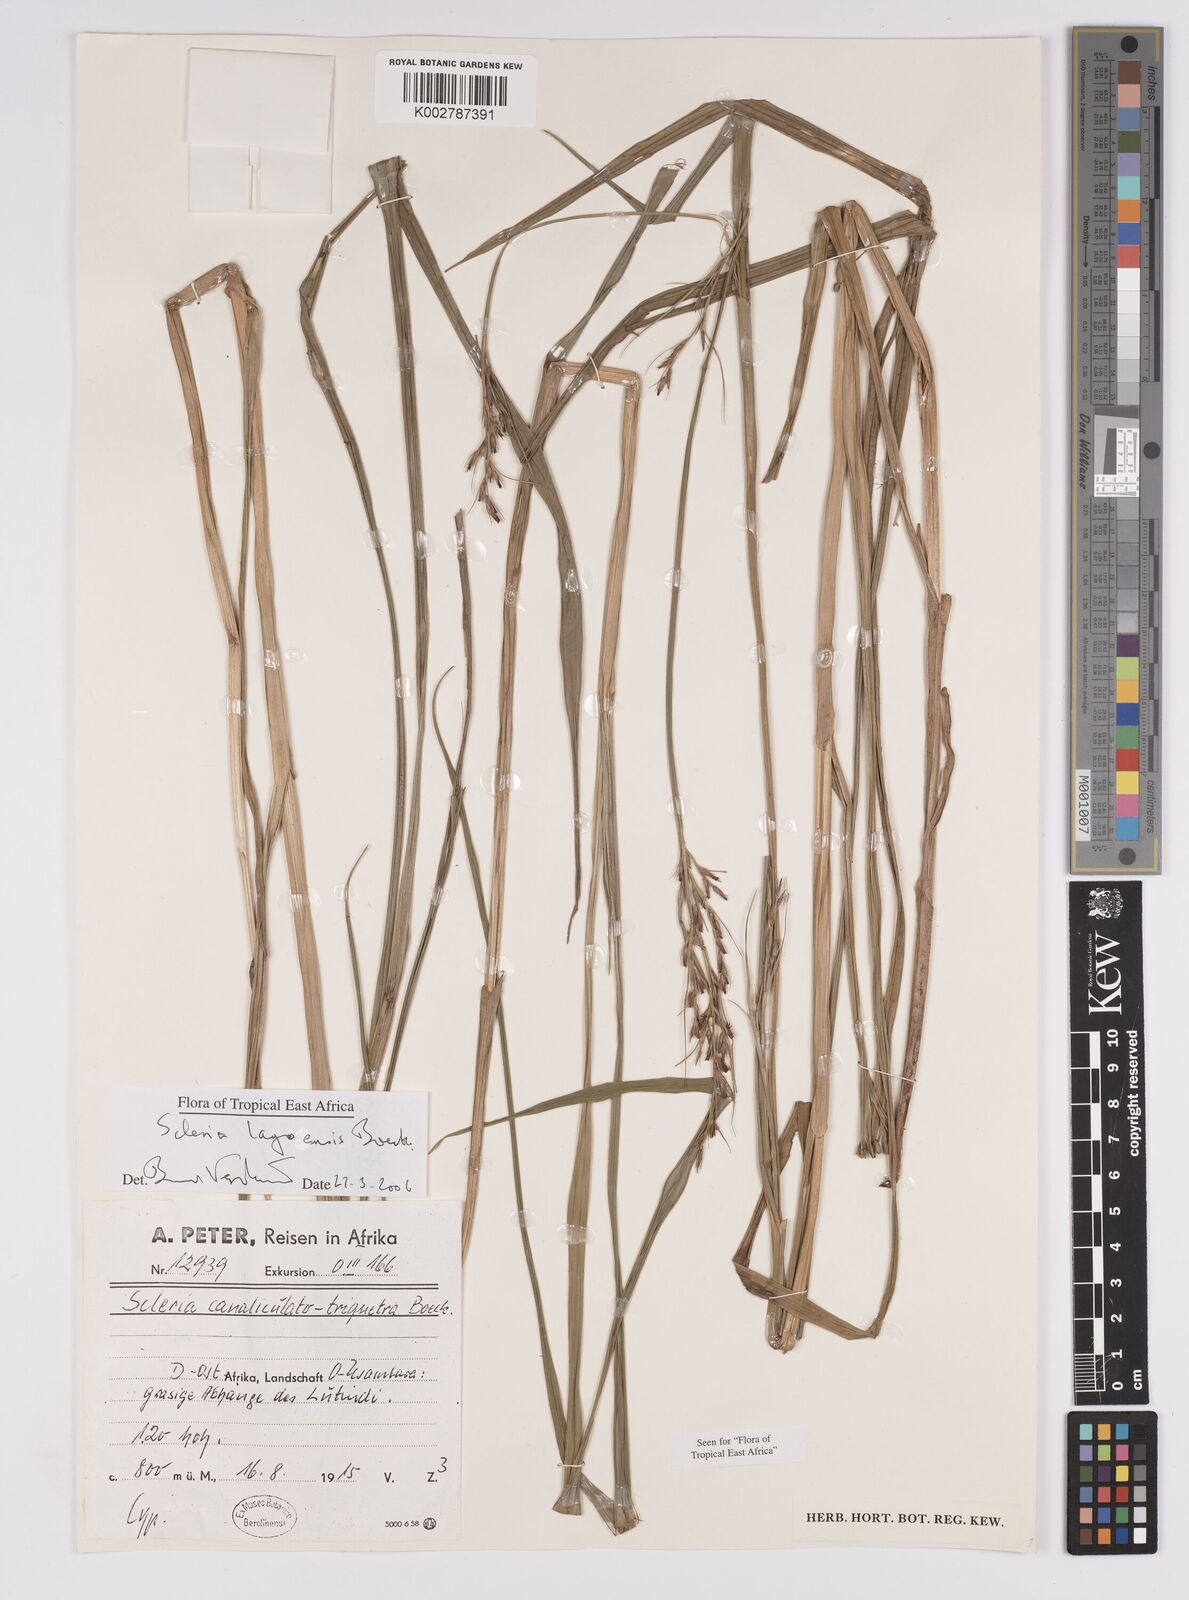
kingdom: Plantae
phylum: Tracheophyta
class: Liliopsida
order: Poales
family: Cyperaceae
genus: Scleria
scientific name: Scleria lagoensis
